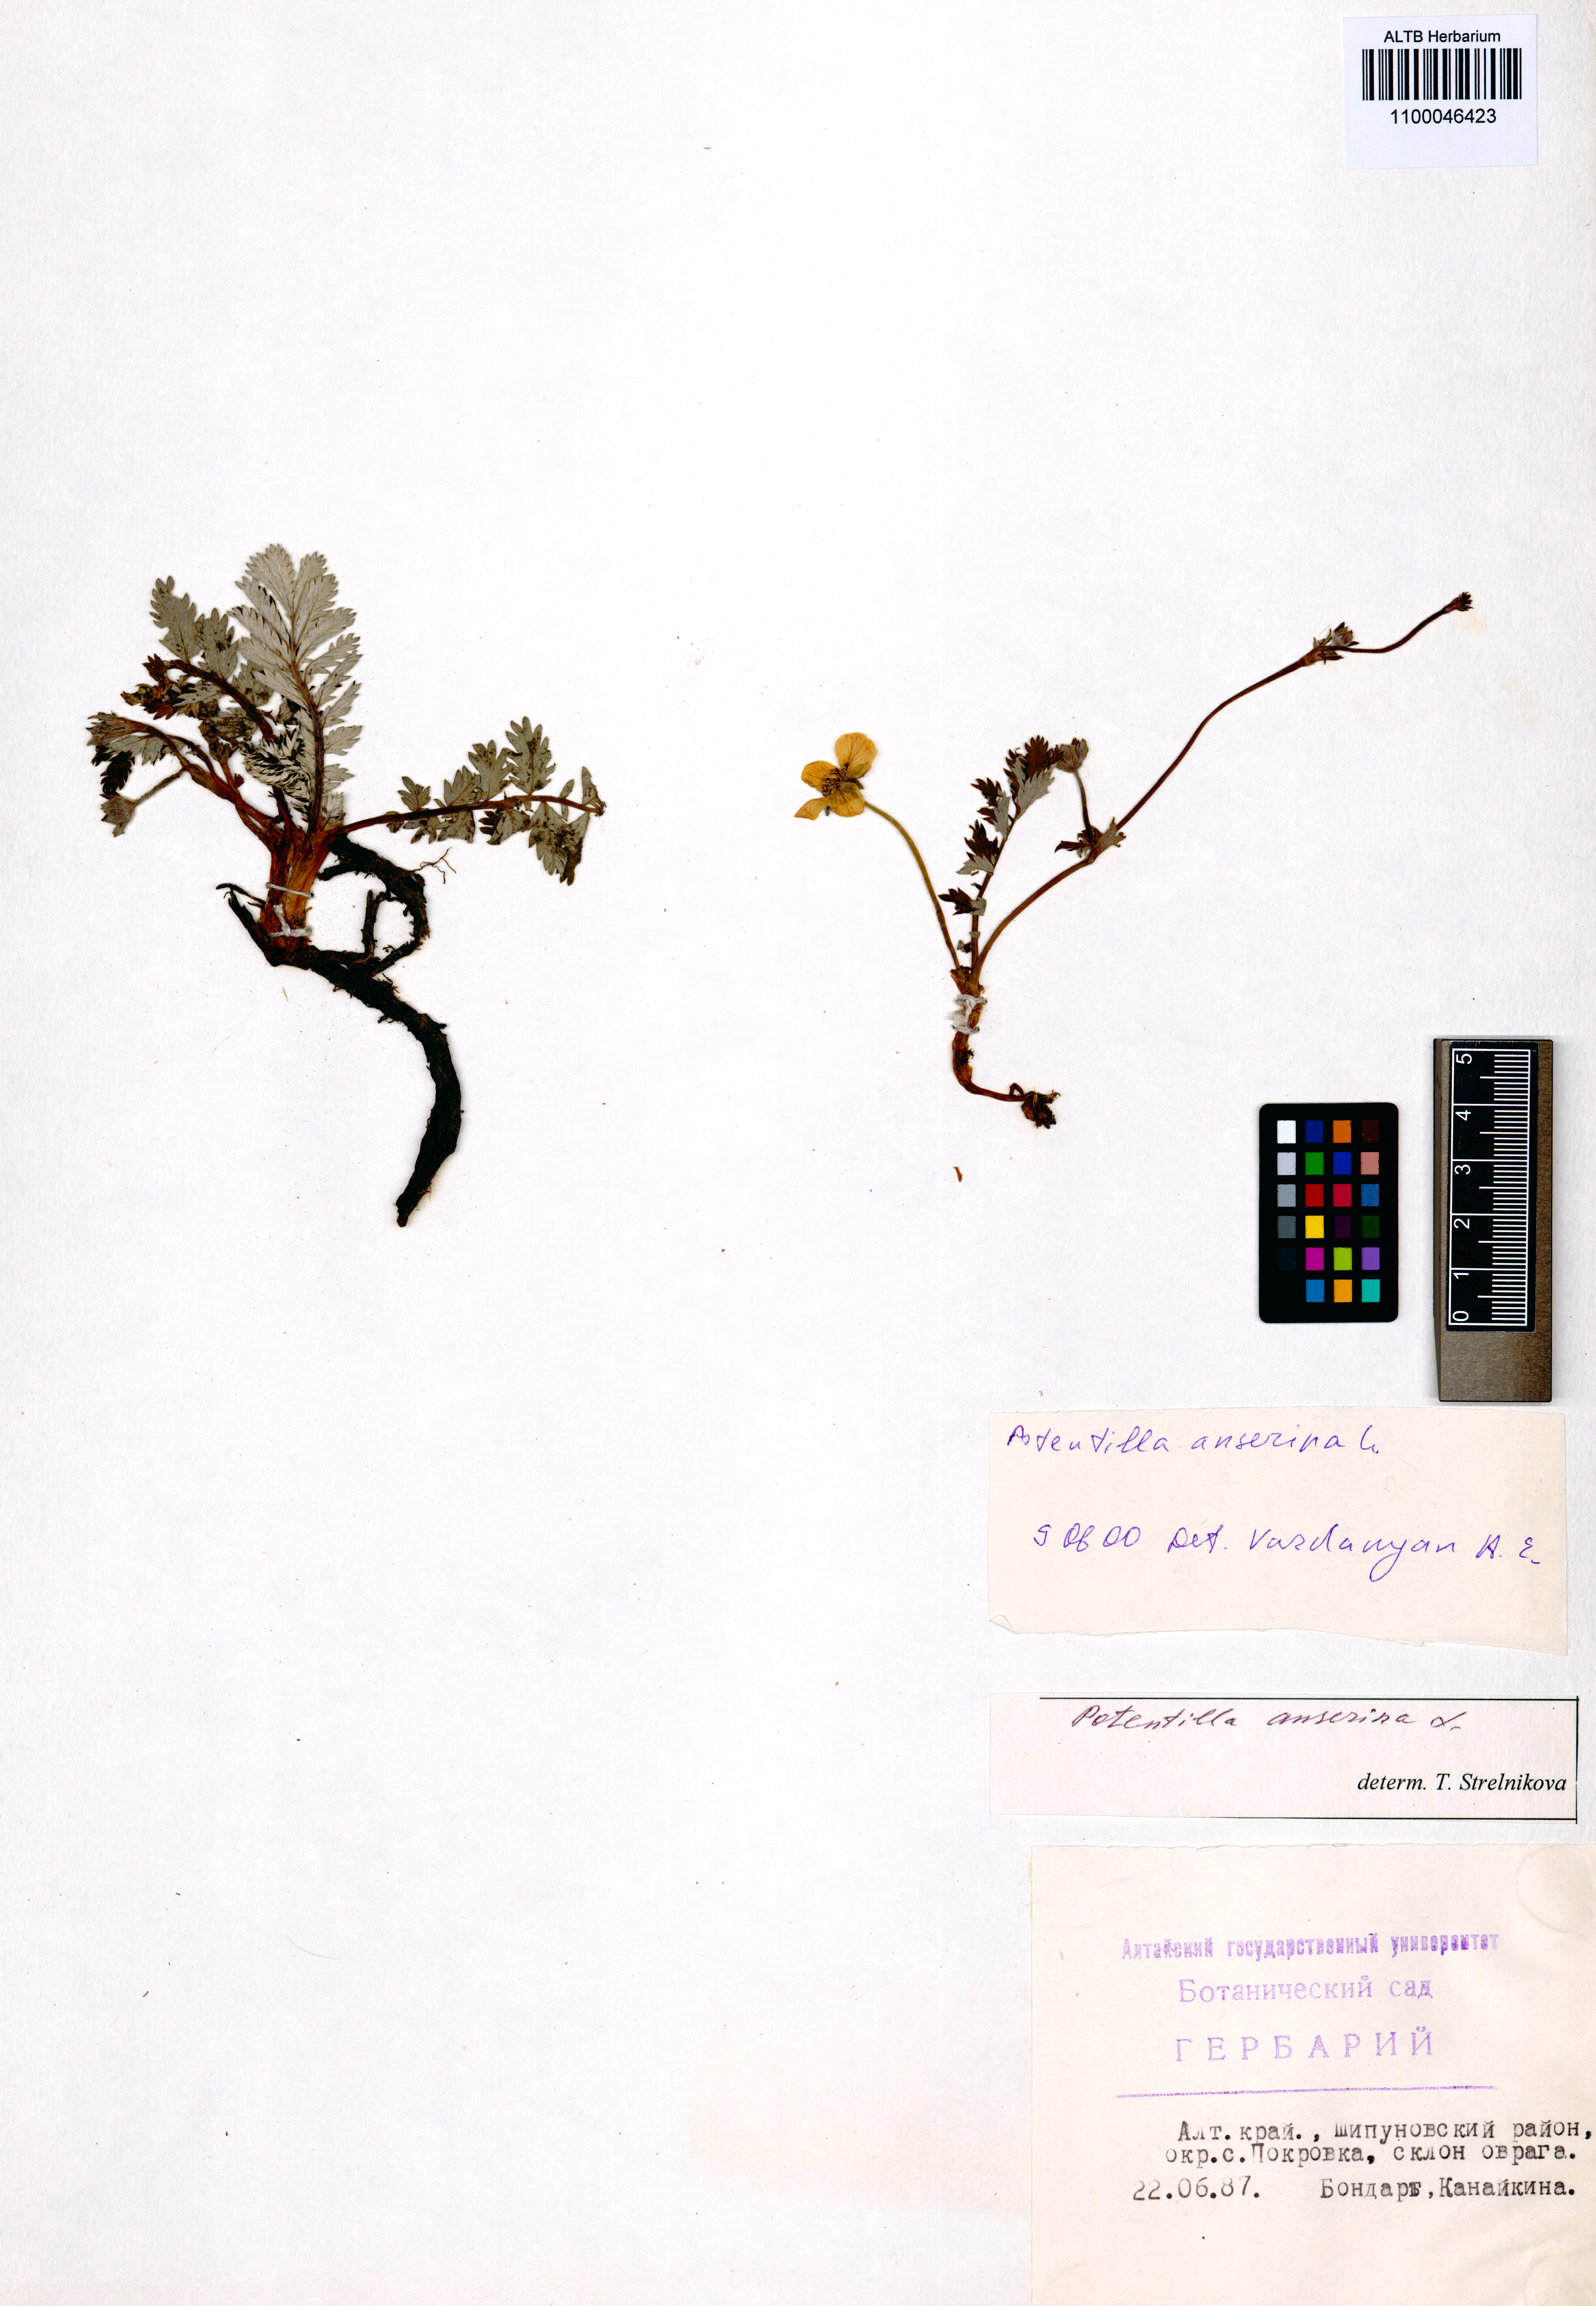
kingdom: Plantae
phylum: Tracheophyta
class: Magnoliopsida
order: Rosales
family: Rosaceae
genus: Argentina
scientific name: Argentina anserina
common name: Common silverweed
